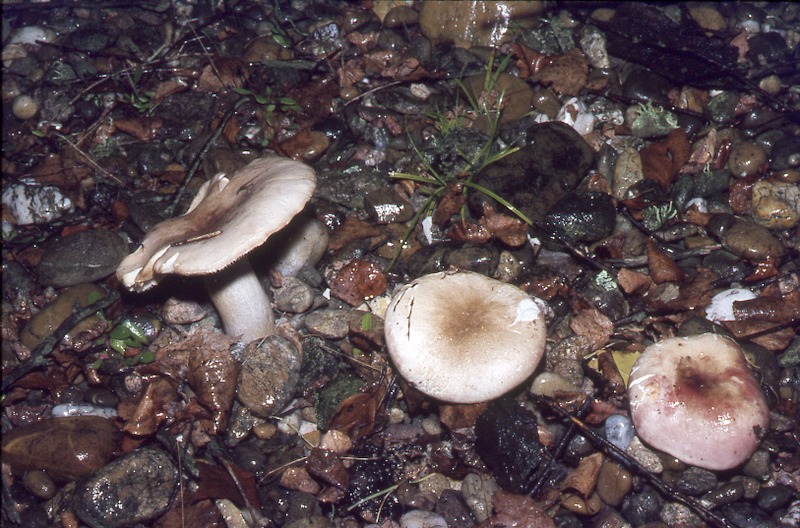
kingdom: Fungi
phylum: Basidiomycota
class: Agaricomycetes
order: Russulales
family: Russulaceae
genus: Russula
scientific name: Russula exalbicans
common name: Bleached brittlegill
